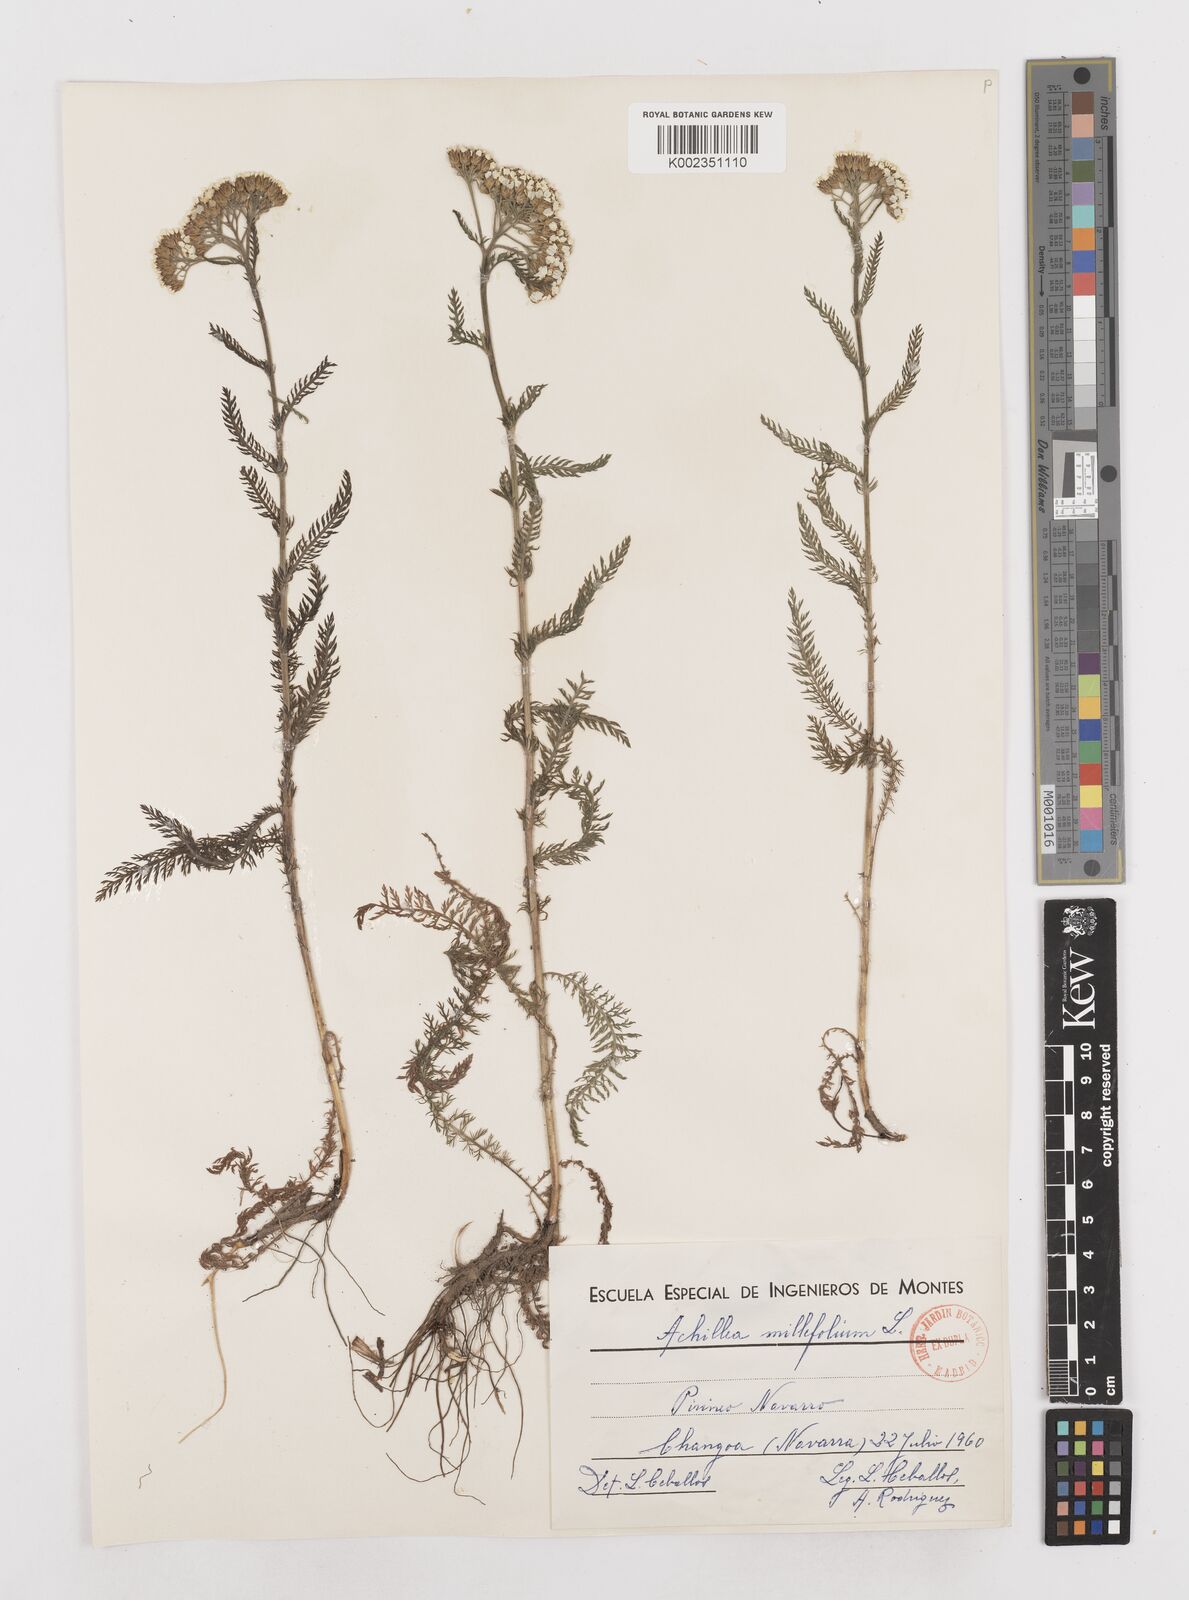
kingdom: Plantae
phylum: Tracheophyta
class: Magnoliopsida
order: Asterales
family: Asteraceae
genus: Achillea
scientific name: Achillea millefolium
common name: Yarrow
